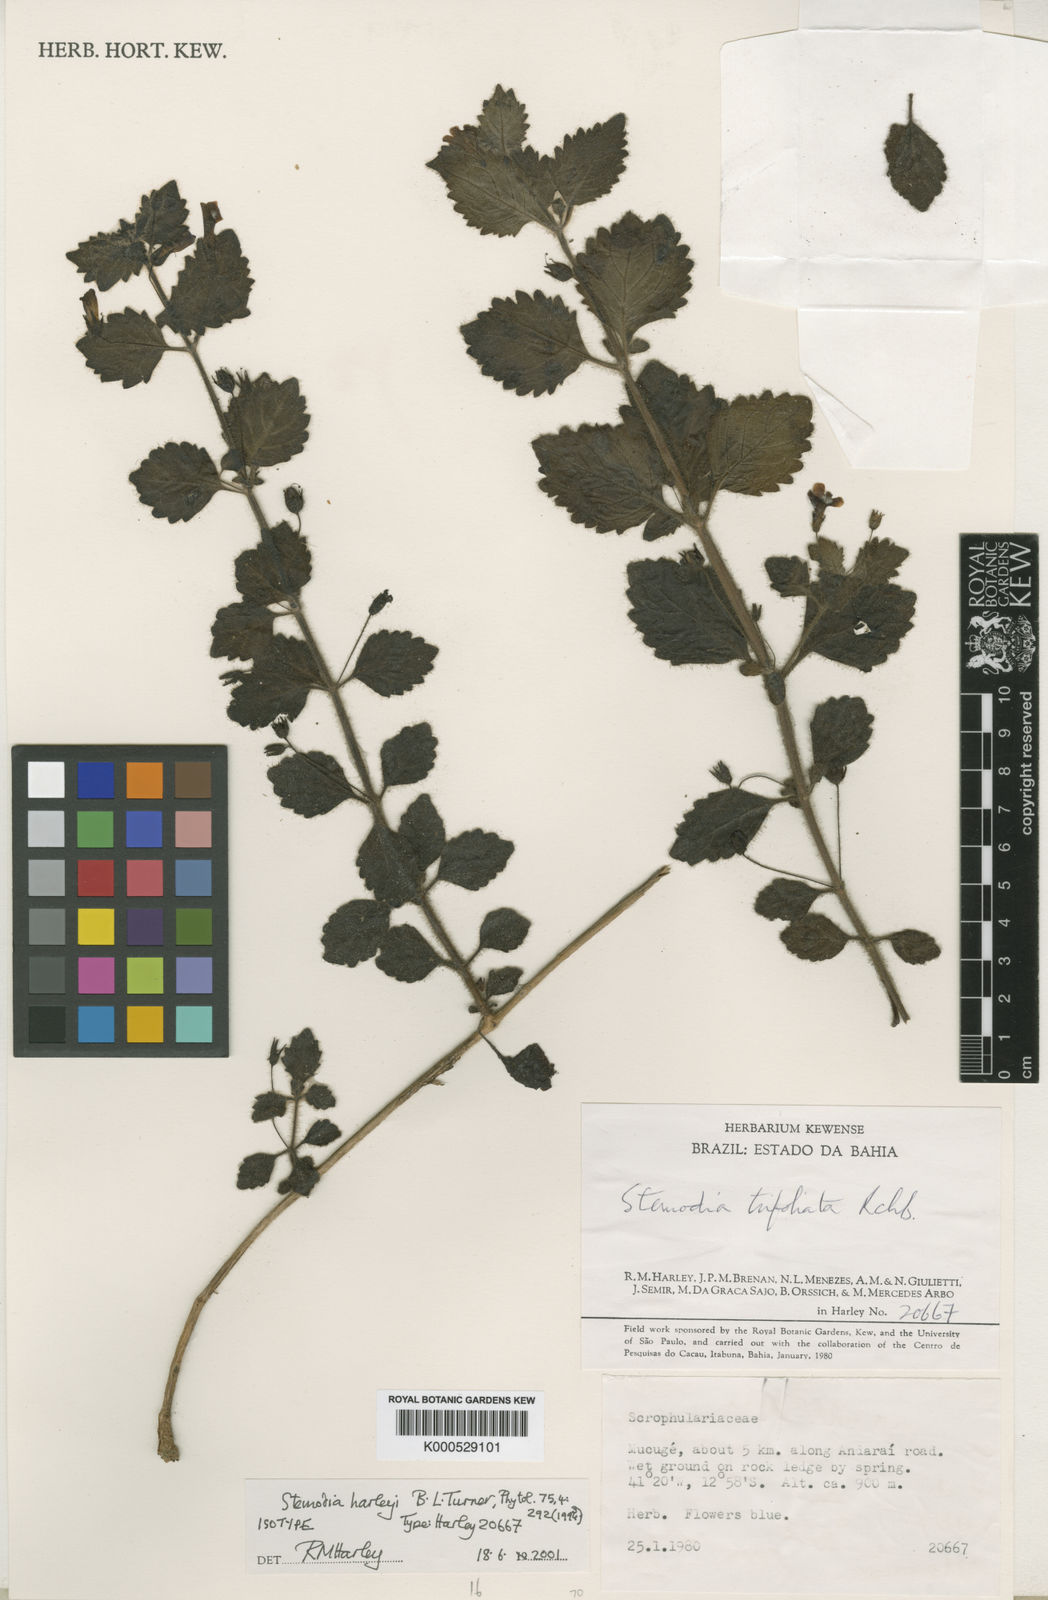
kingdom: Plantae
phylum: Tracheophyta
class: Magnoliopsida
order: Lamiales
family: Plantaginaceae
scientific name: Plantaginaceae
